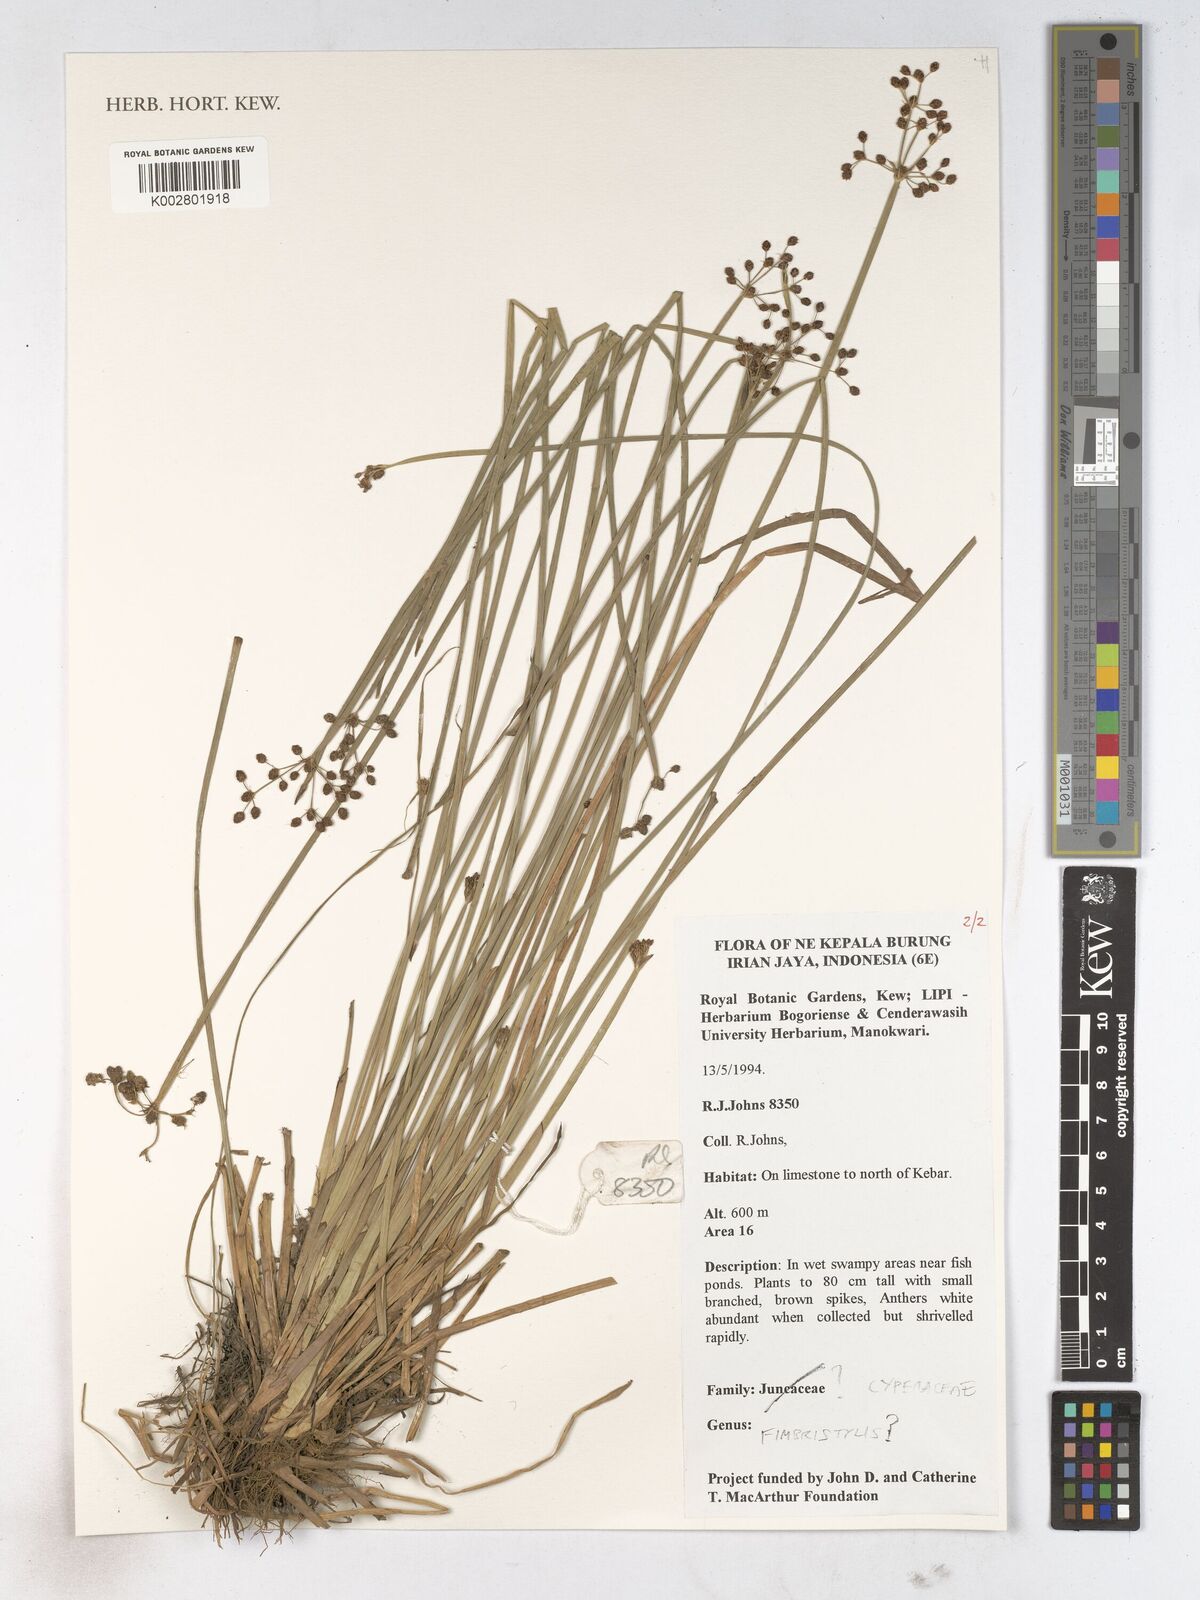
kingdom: Plantae
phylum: Tracheophyta
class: Liliopsida
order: Poales
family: Cyperaceae
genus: Fimbristylis
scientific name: Fimbristylis
